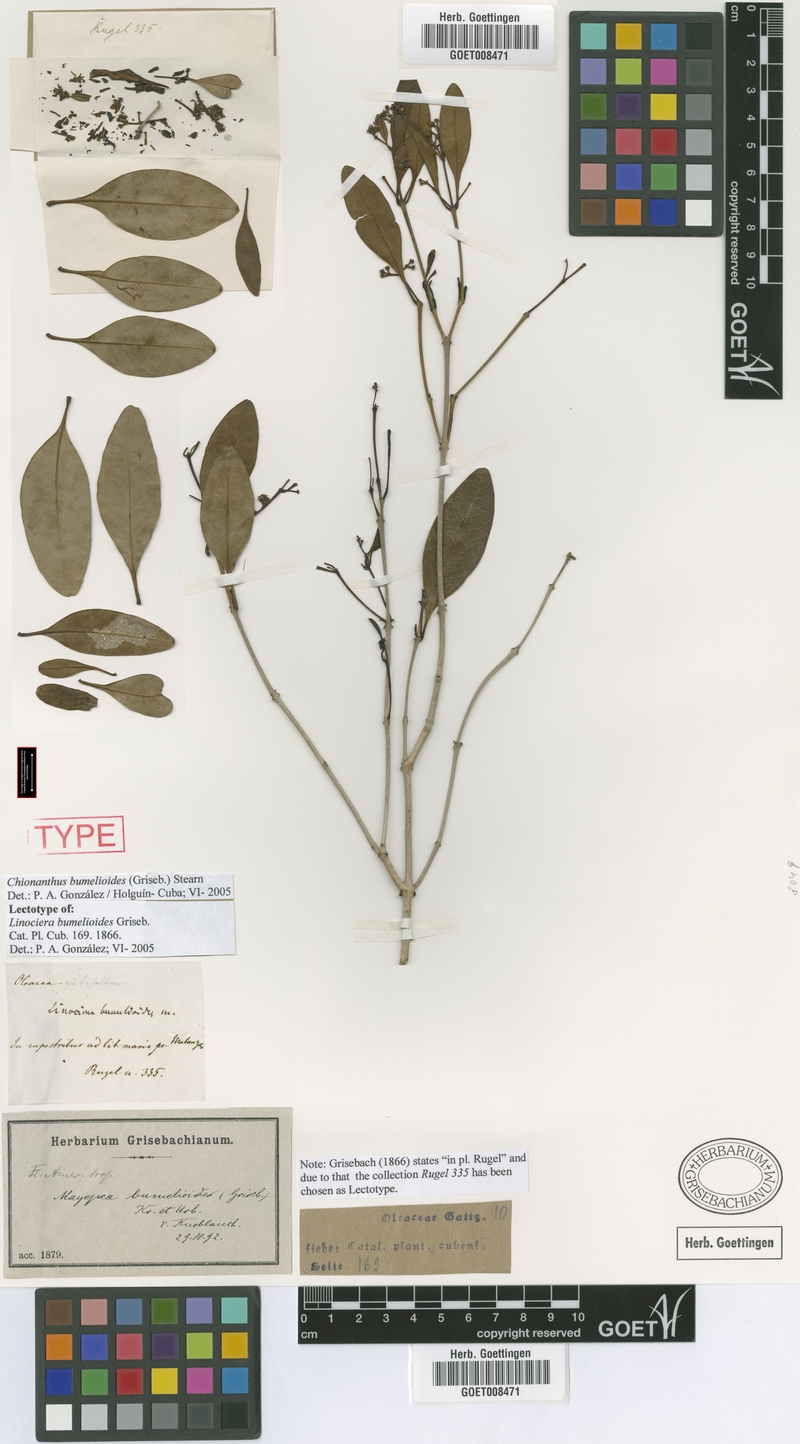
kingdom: Plantae
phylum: Tracheophyta
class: Magnoliopsida
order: Lamiales
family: Oleaceae
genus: Chionanthus
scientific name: Chionanthus bumelioides
